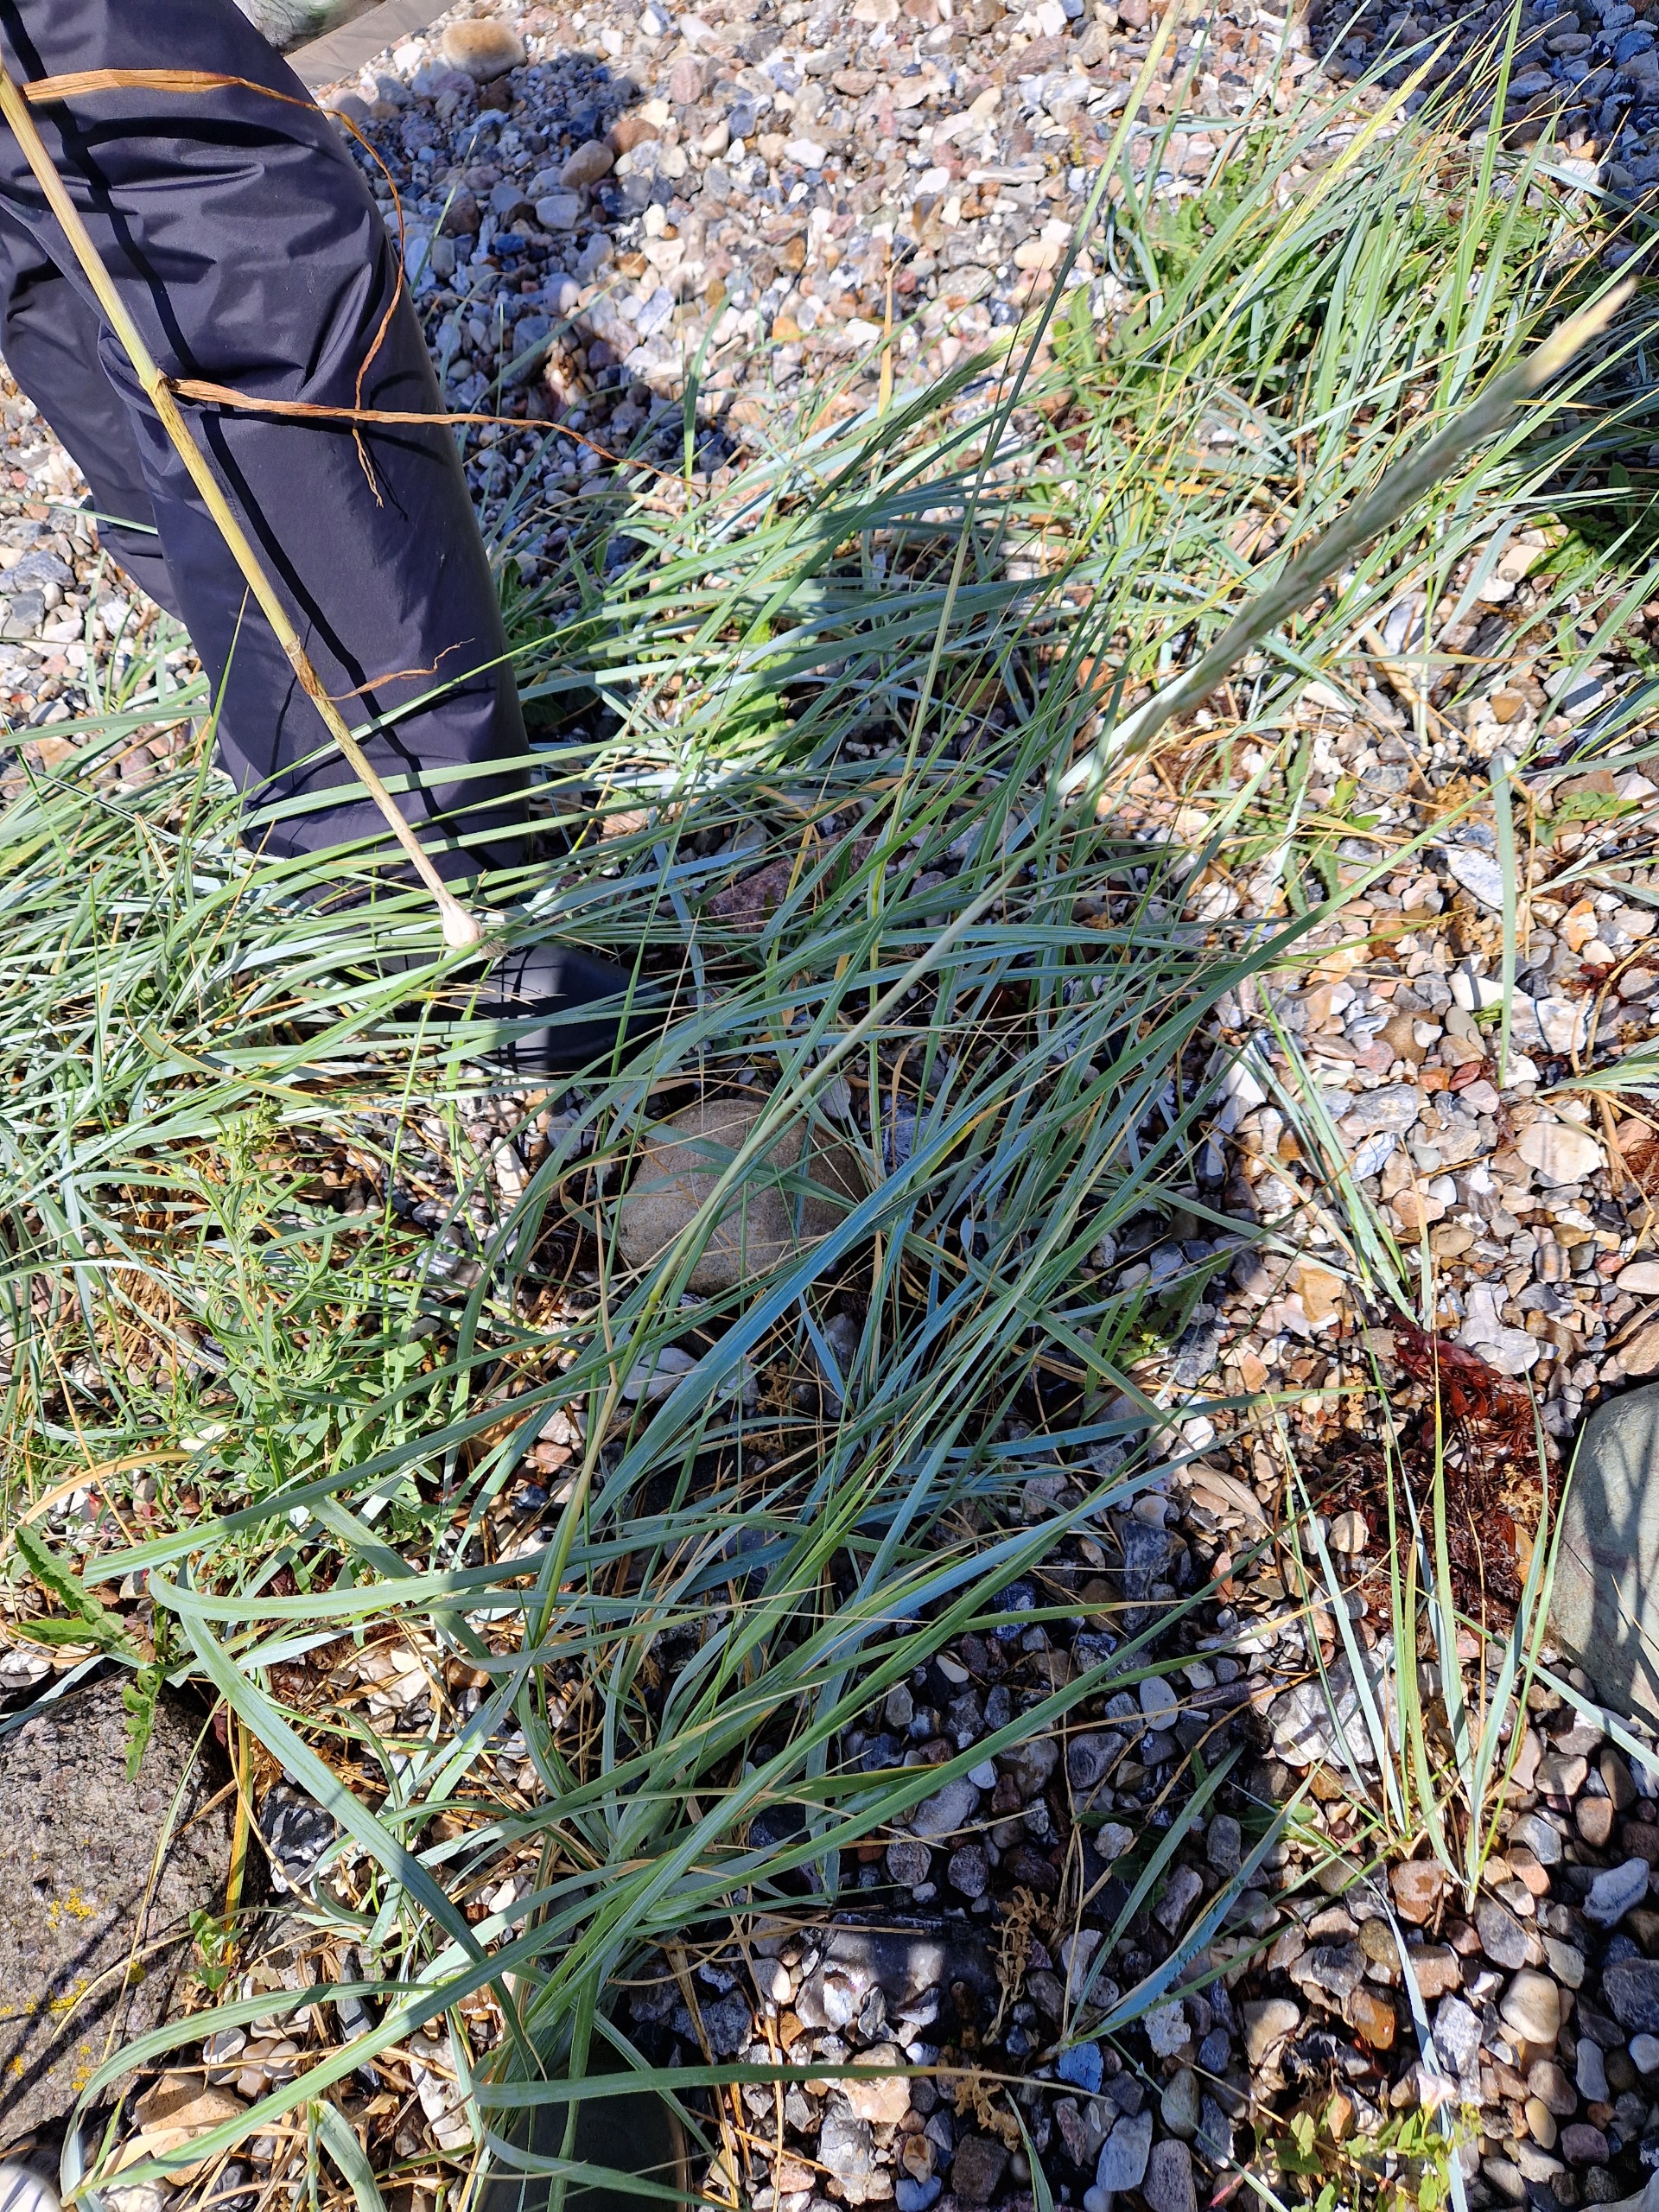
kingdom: Plantae
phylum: Tracheophyta
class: Liliopsida
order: Poales
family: Poaceae
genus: Leymus
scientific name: Leymus arenarius
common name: Marehalm
